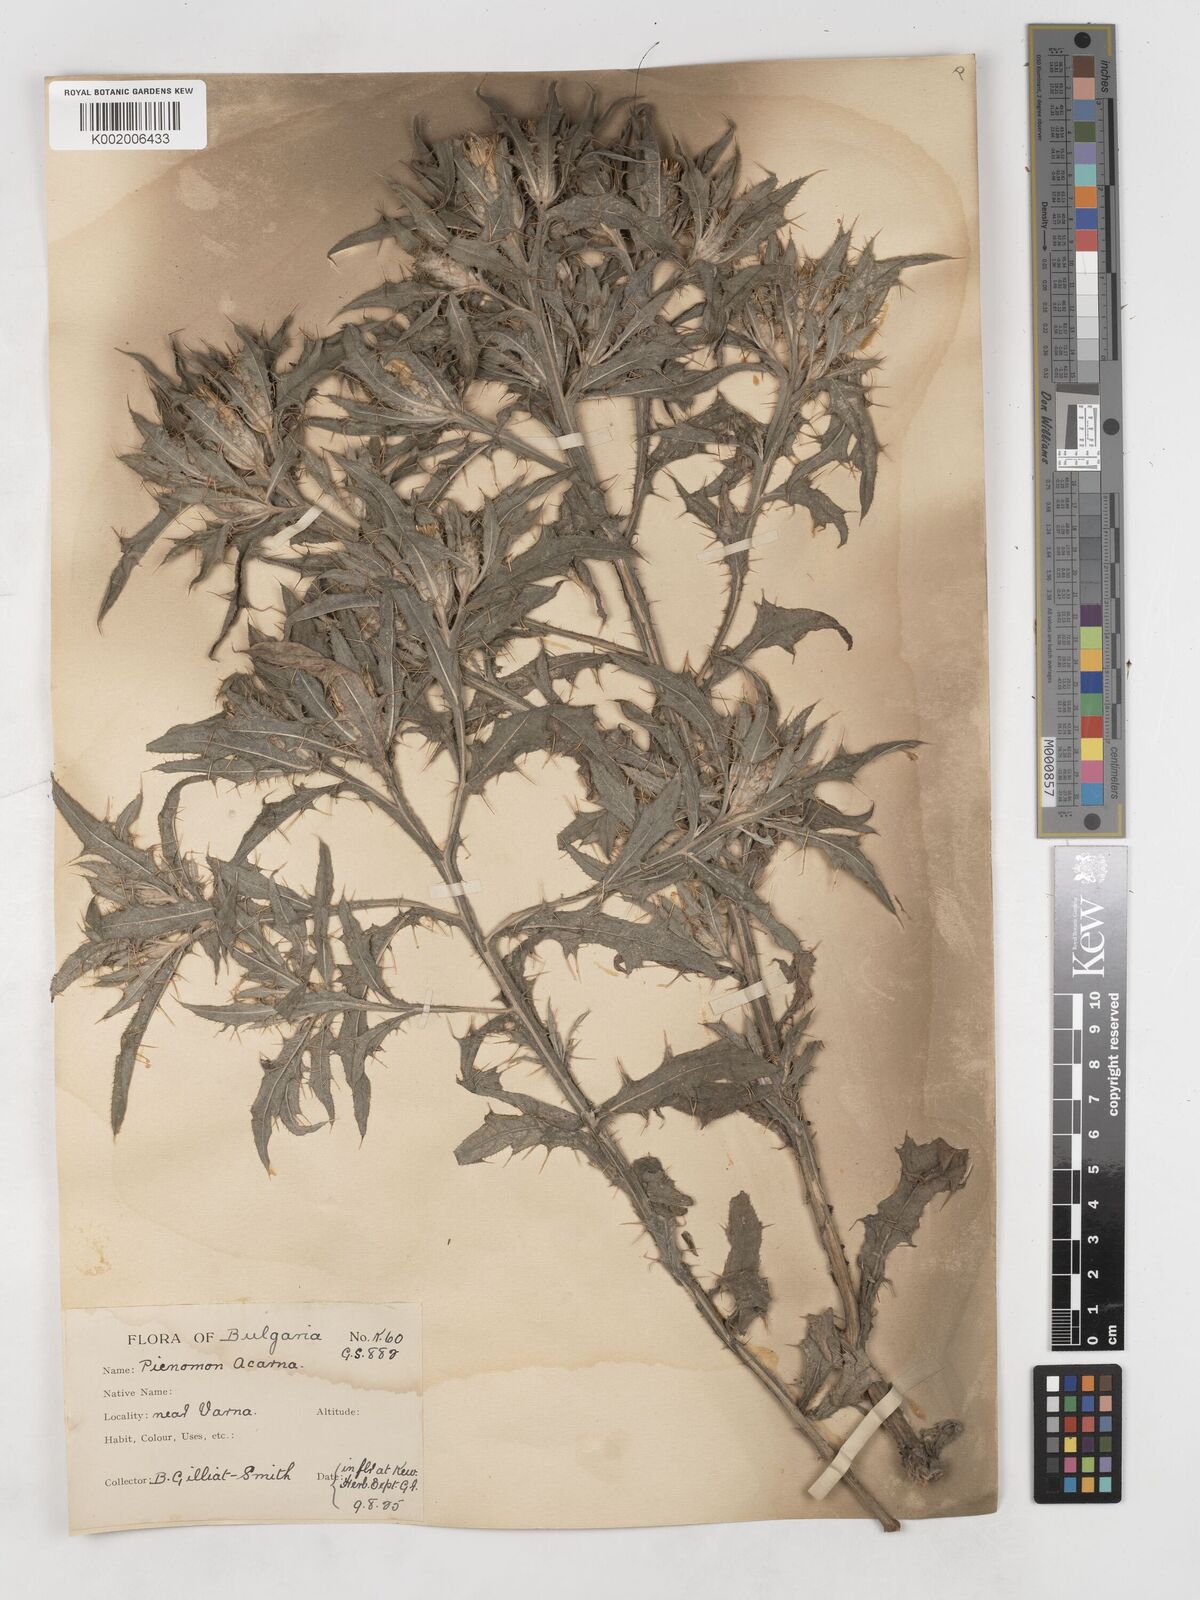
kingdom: Plantae
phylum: Tracheophyta
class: Magnoliopsida
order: Asterales
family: Asteraceae
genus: Picnomon
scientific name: Picnomon acarna
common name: Soldier thistle
